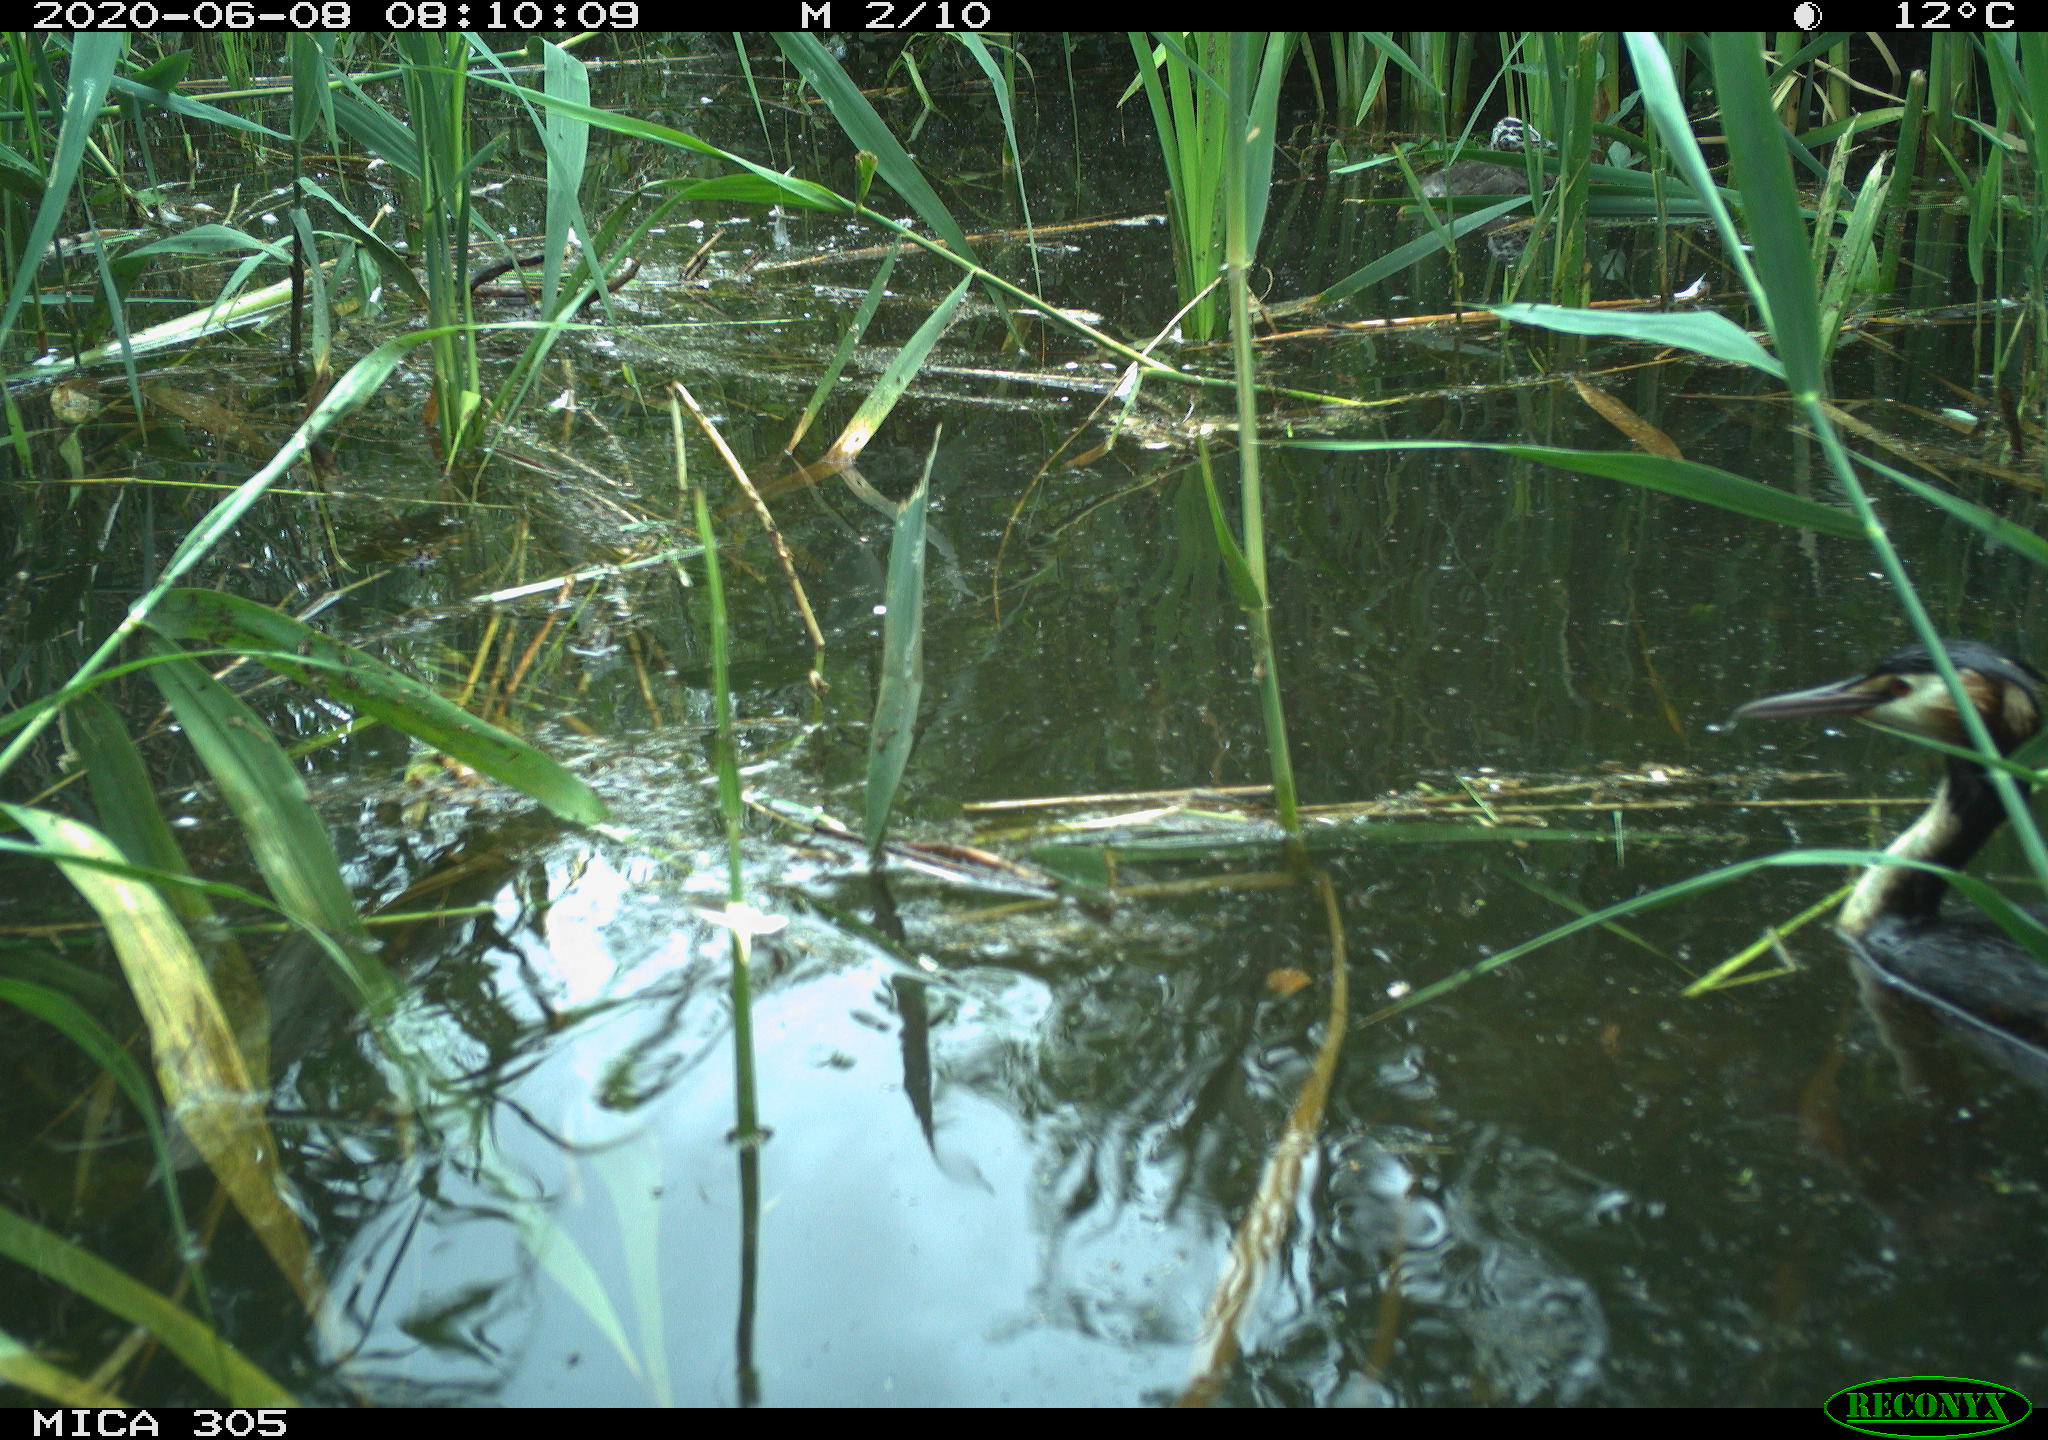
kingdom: Animalia
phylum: Chordata
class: Aves
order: Podicipediformes
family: Podicipedidae
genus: Podiceps
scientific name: Podiceps cristatus
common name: Great crested grebe
